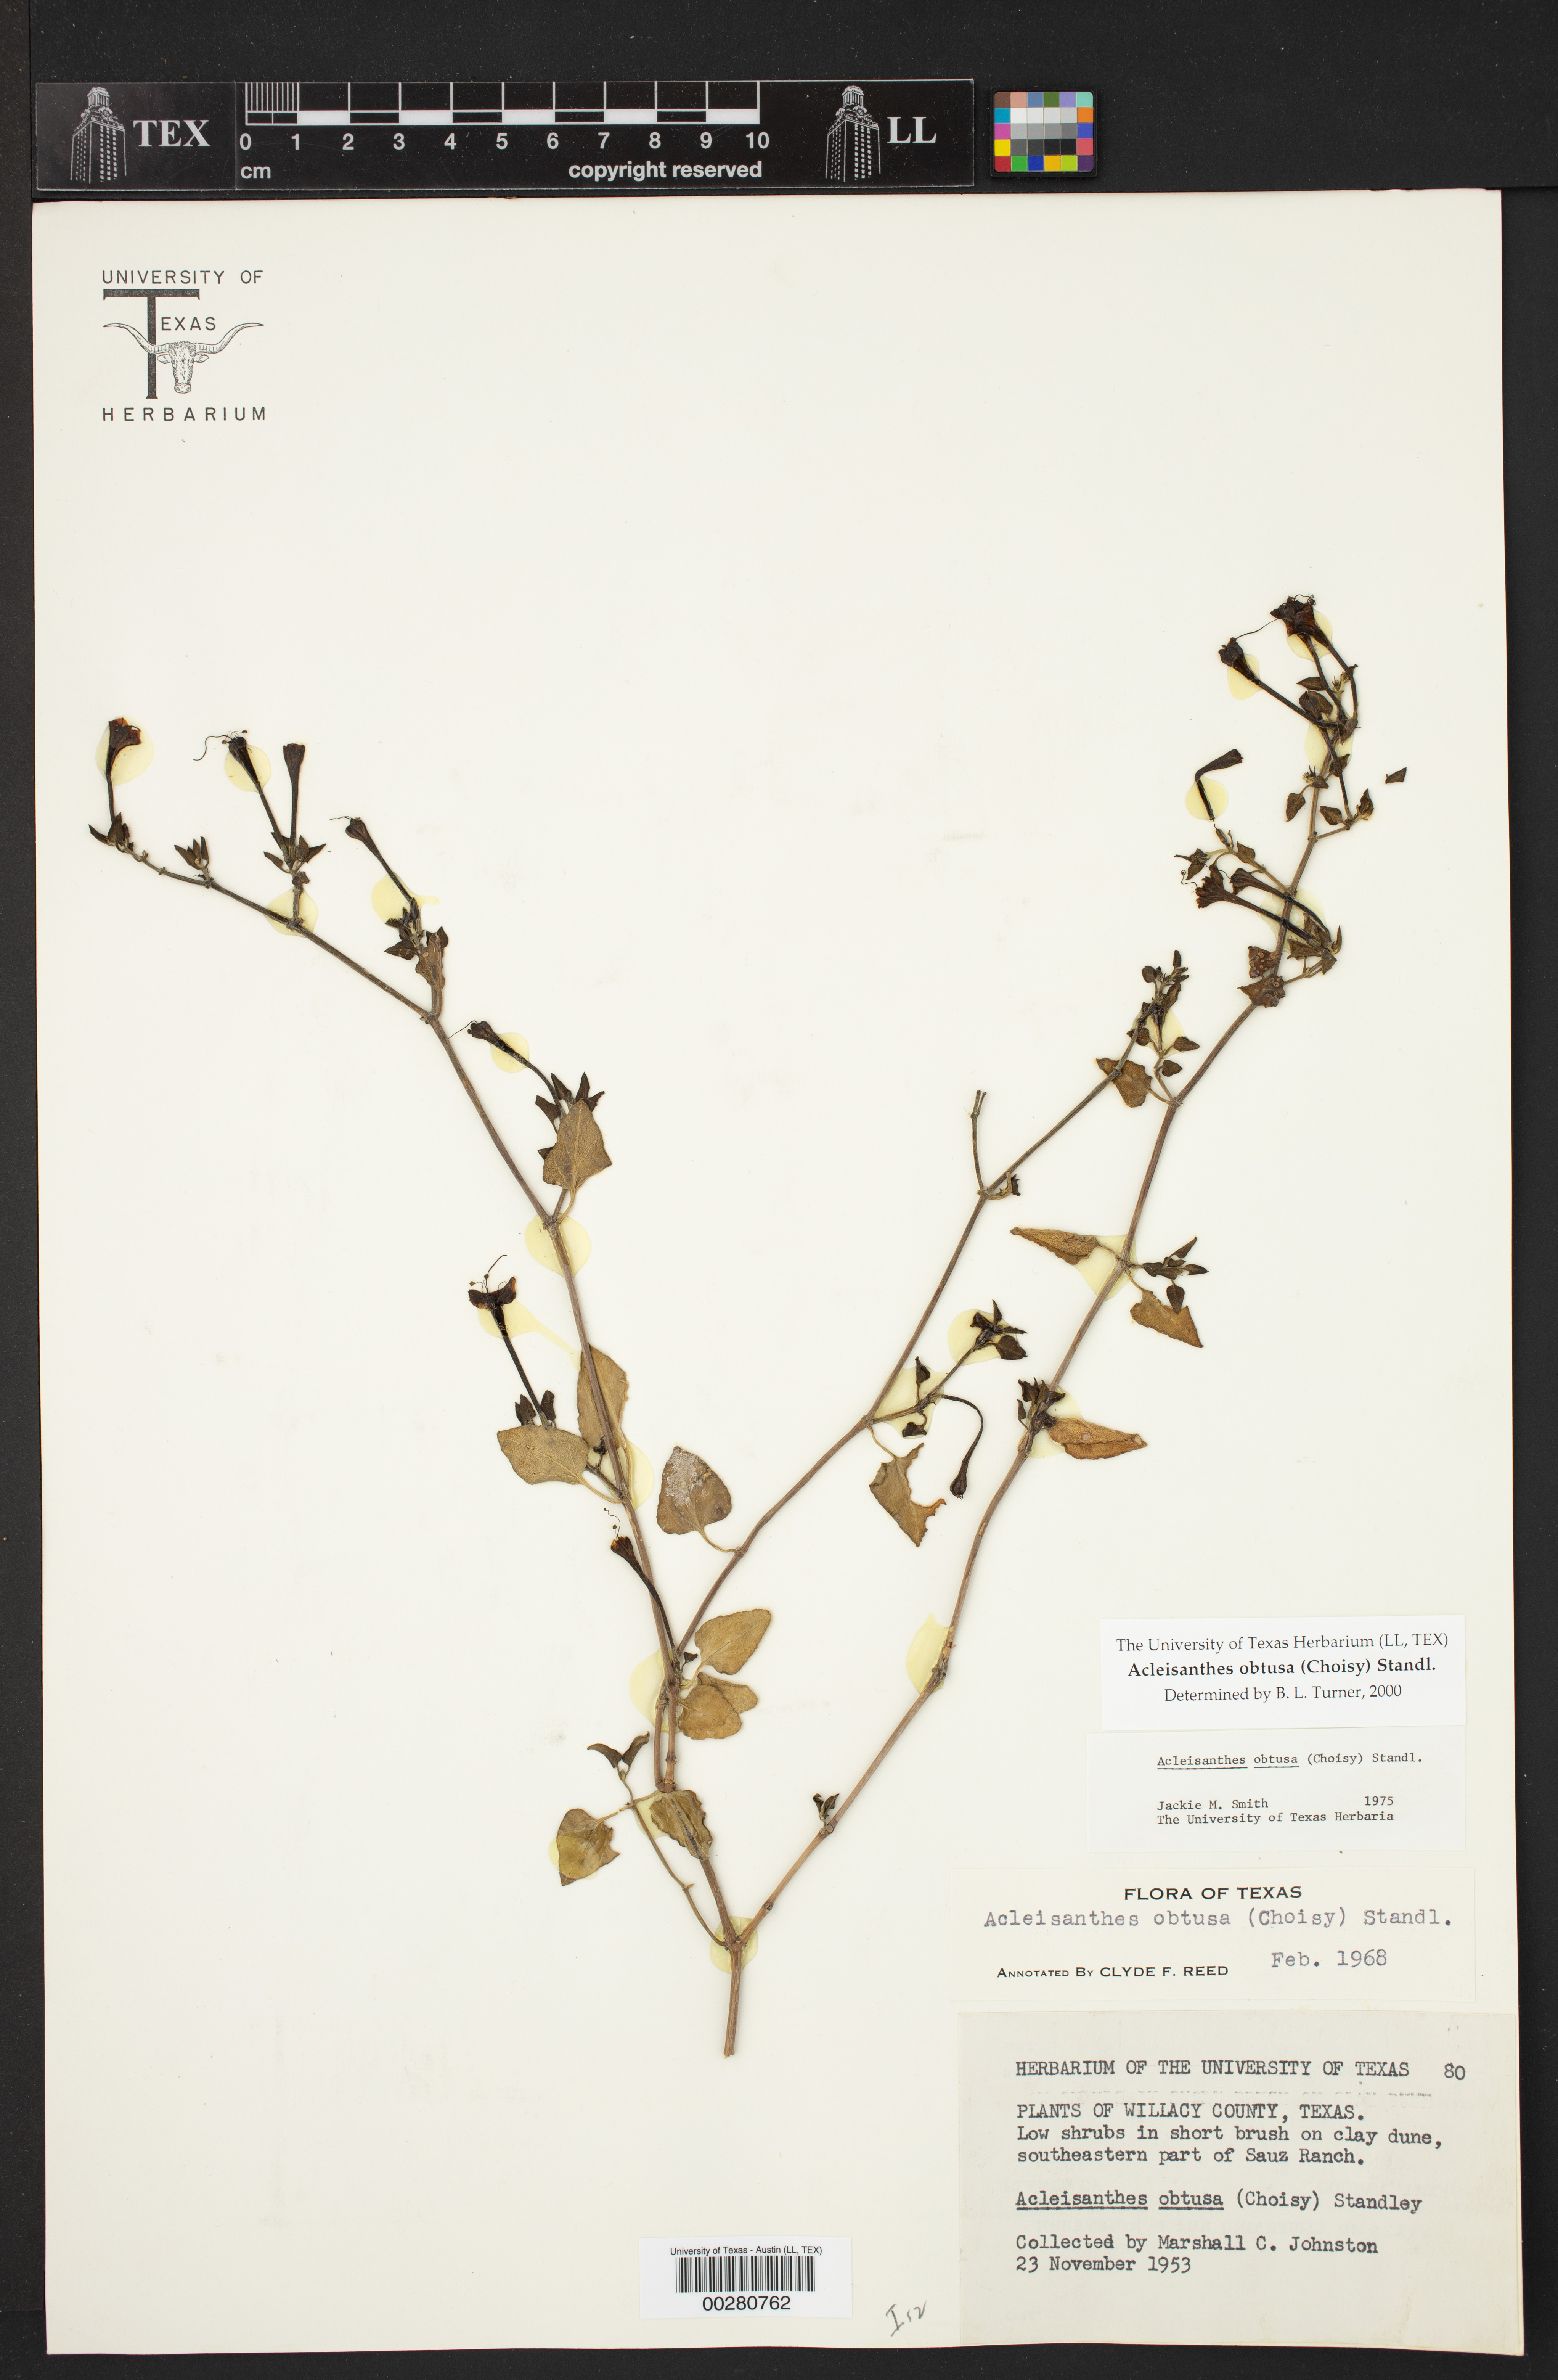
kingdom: Plantae
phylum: Tracheophyta
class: Magnoliopsida
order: Caryophyllales
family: Nyctaginaceae
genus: Acleisanthes
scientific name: Acleisanthes obtusa
